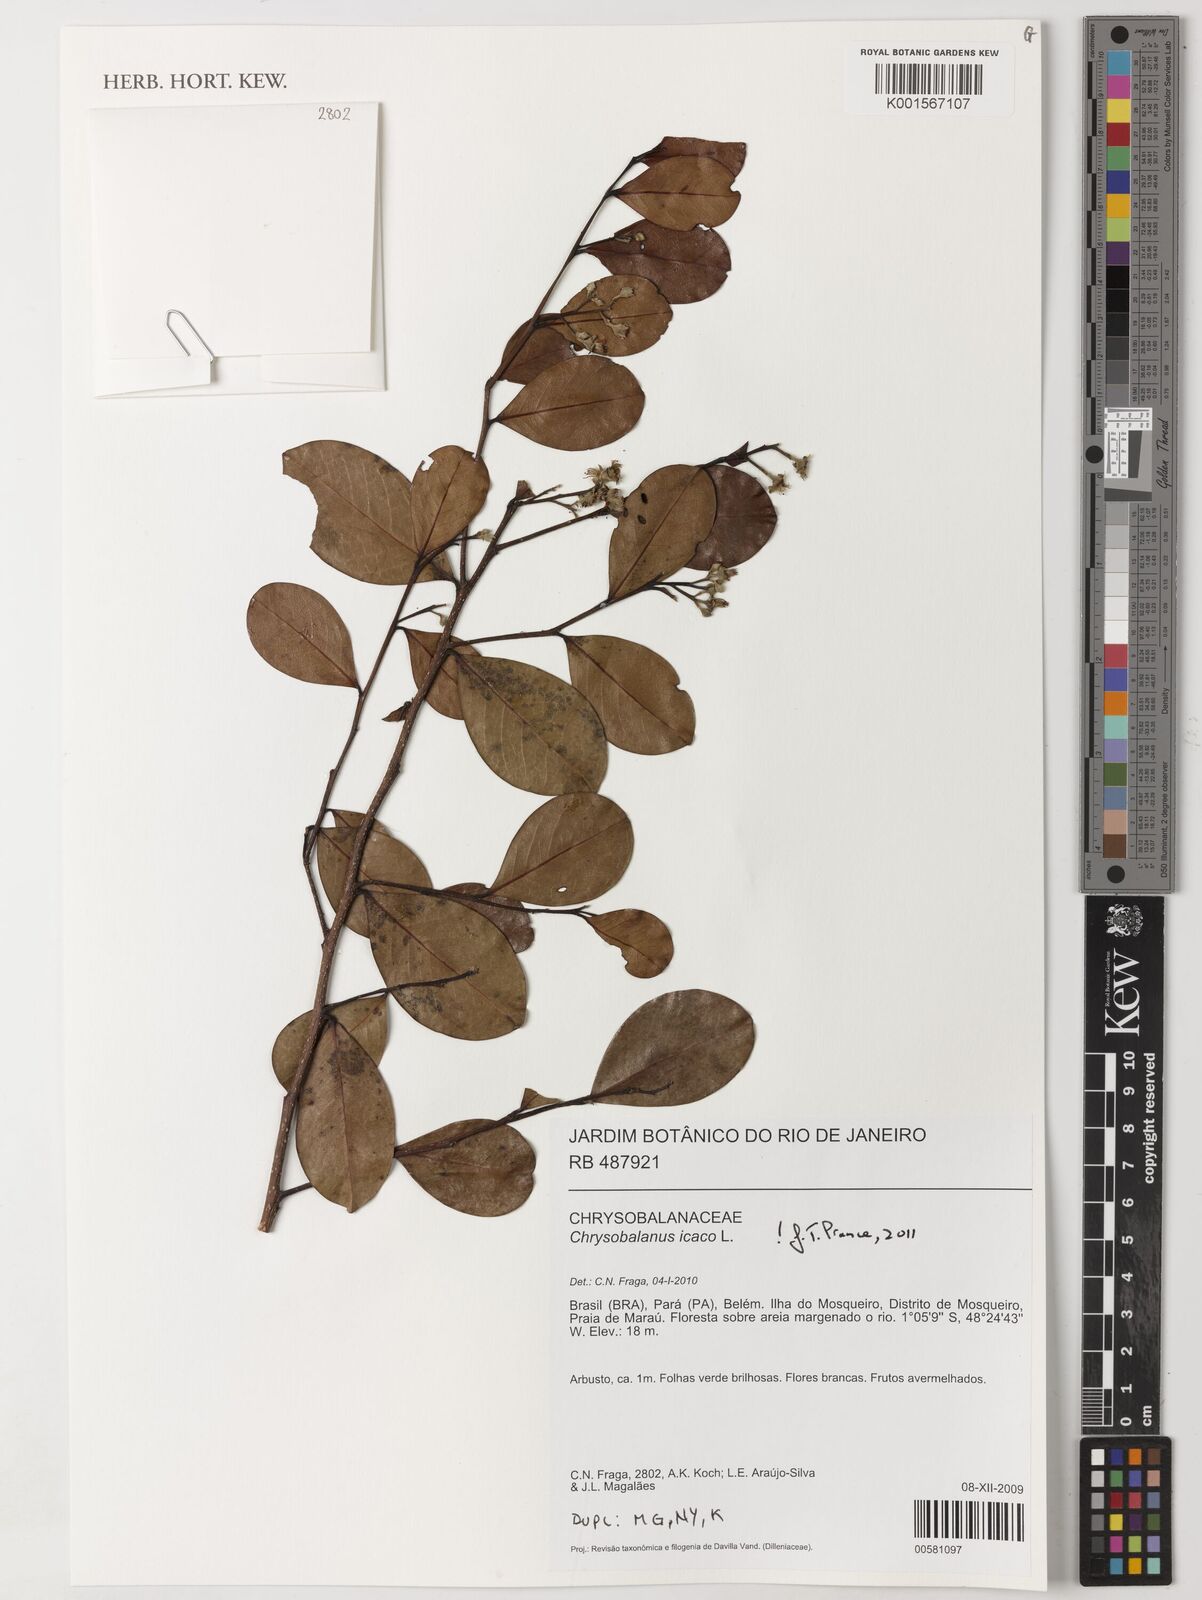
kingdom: Plantae
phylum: Tracheophyta
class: Magnoliopsida
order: Malpighiales
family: Chrysobalanaceae
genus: Chrysobalanus
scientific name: Chrysobalanus icaco
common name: Coco plum
